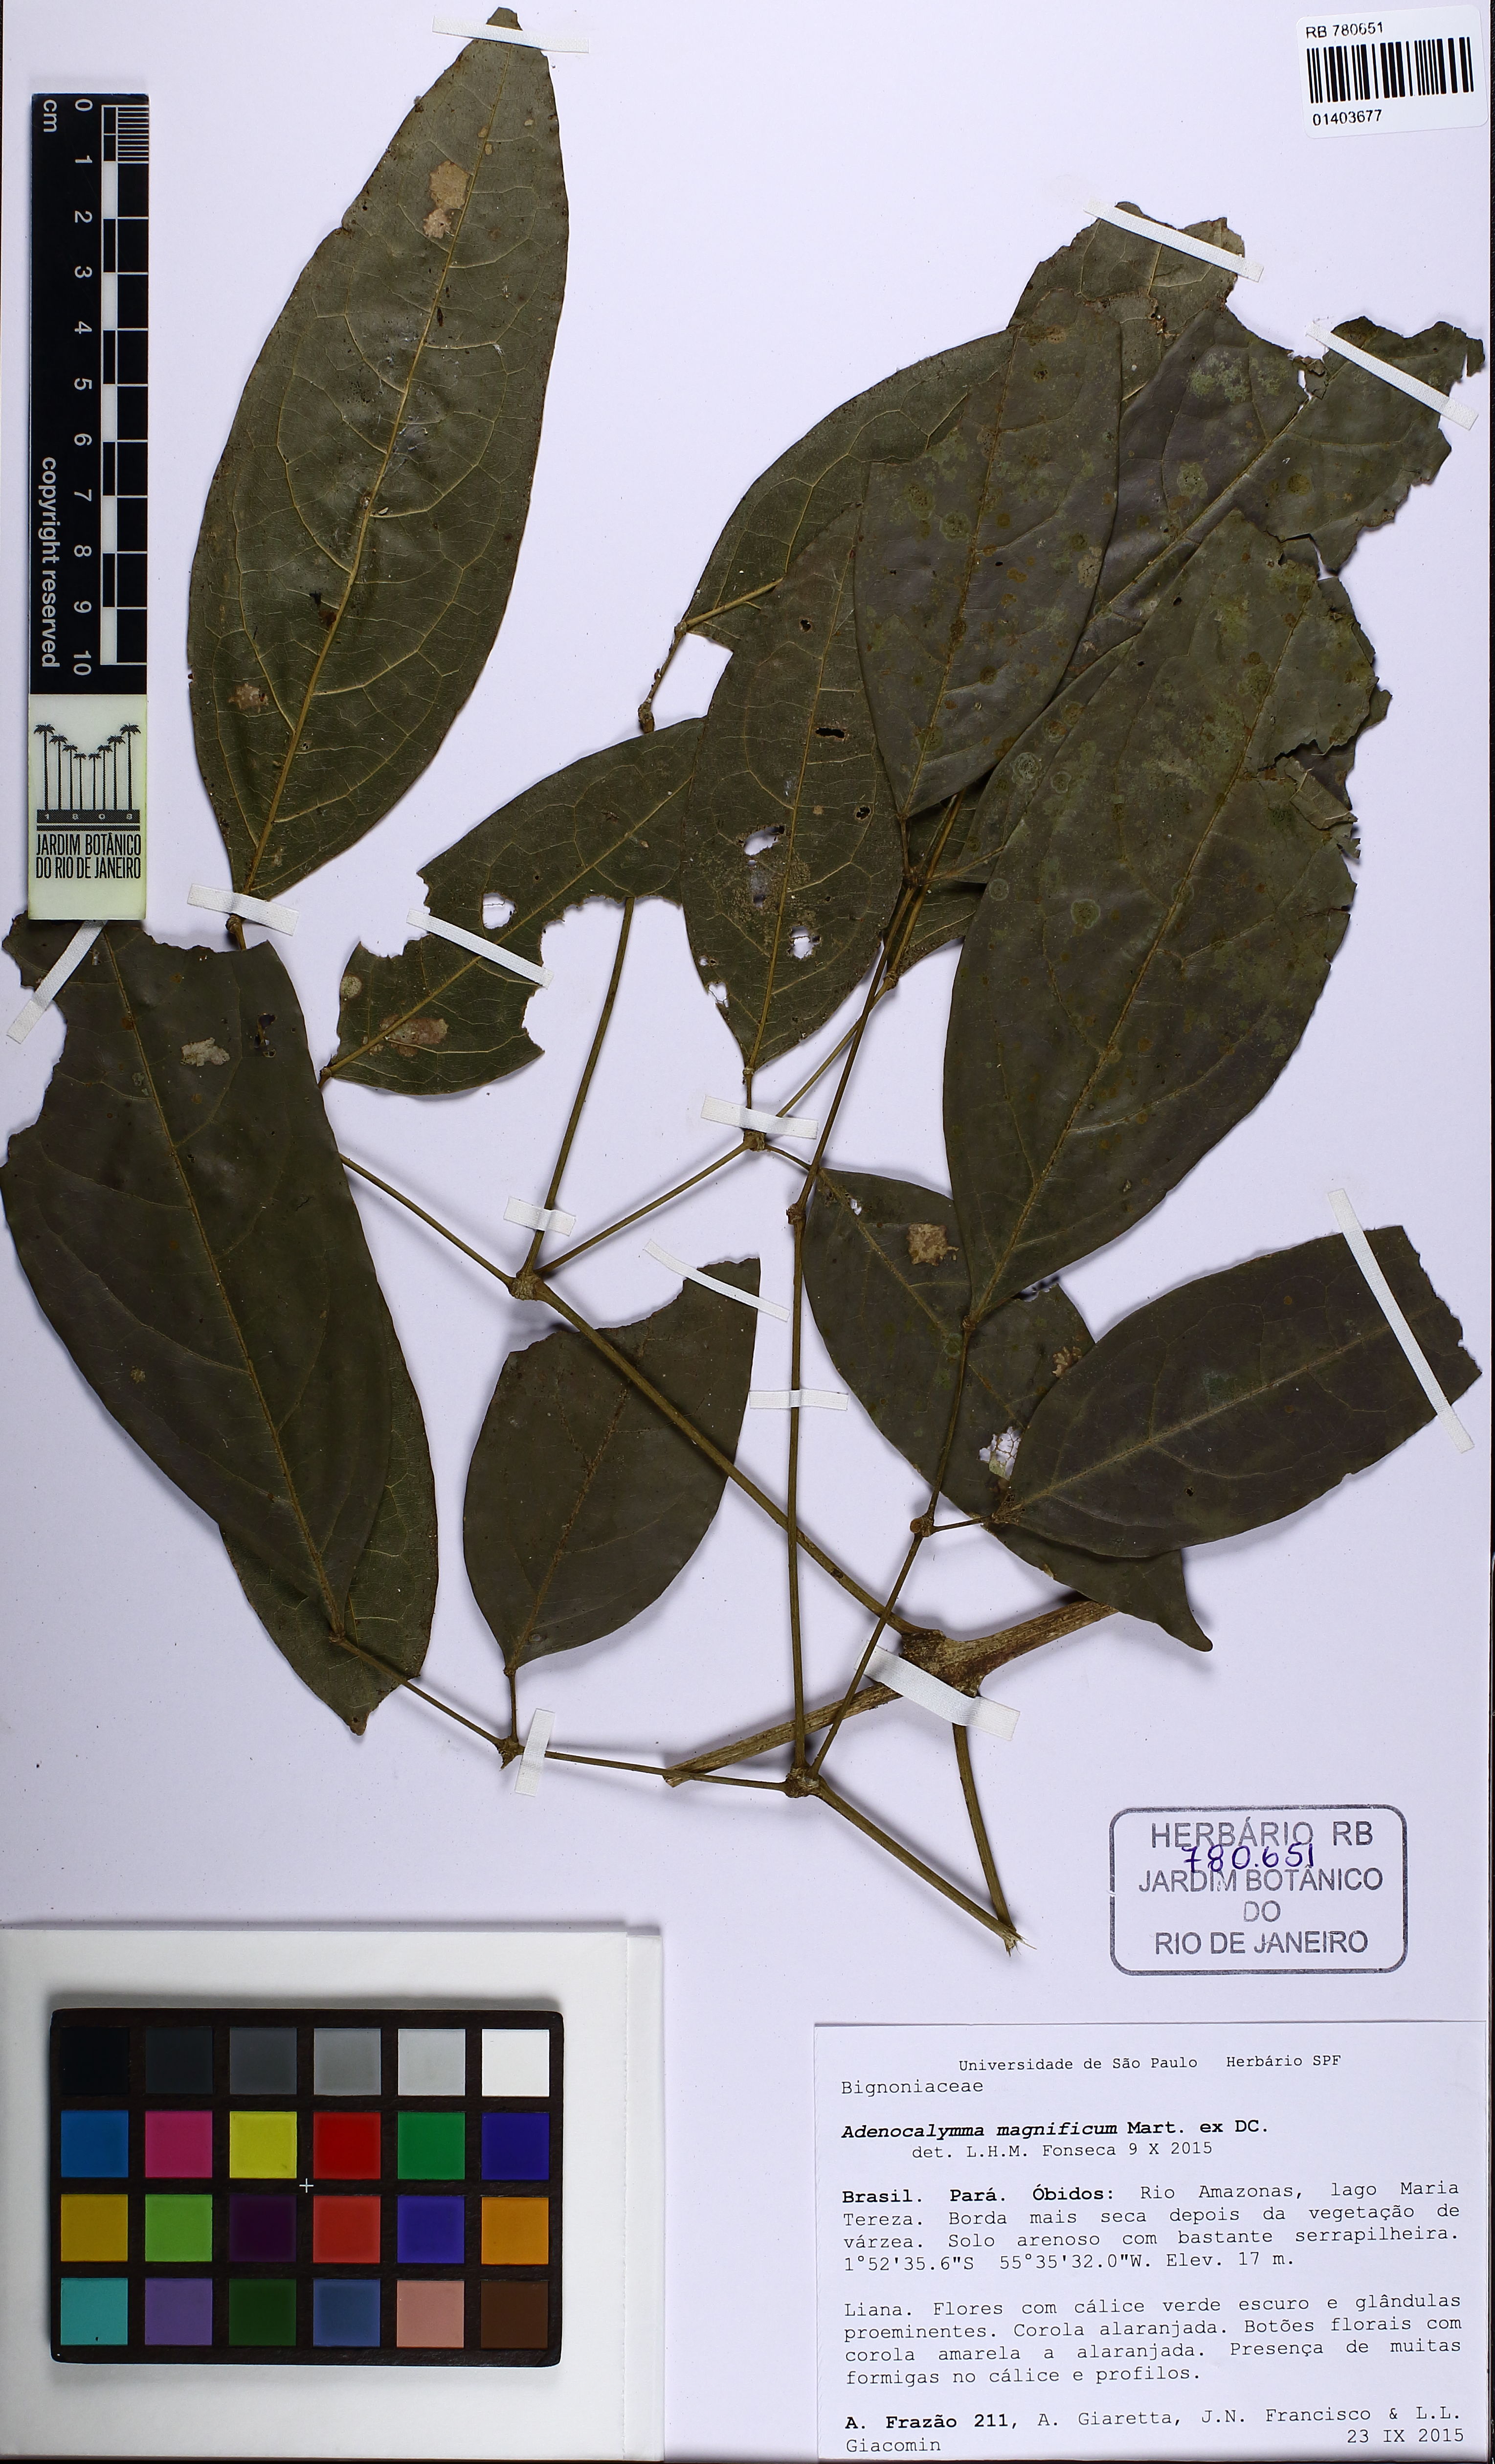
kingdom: Plantae
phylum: Tracheophyta
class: Magnoliopsida
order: Lamiales
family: Bignoniaceae
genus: Adenocalymma
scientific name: Adenocalymma magnificum
